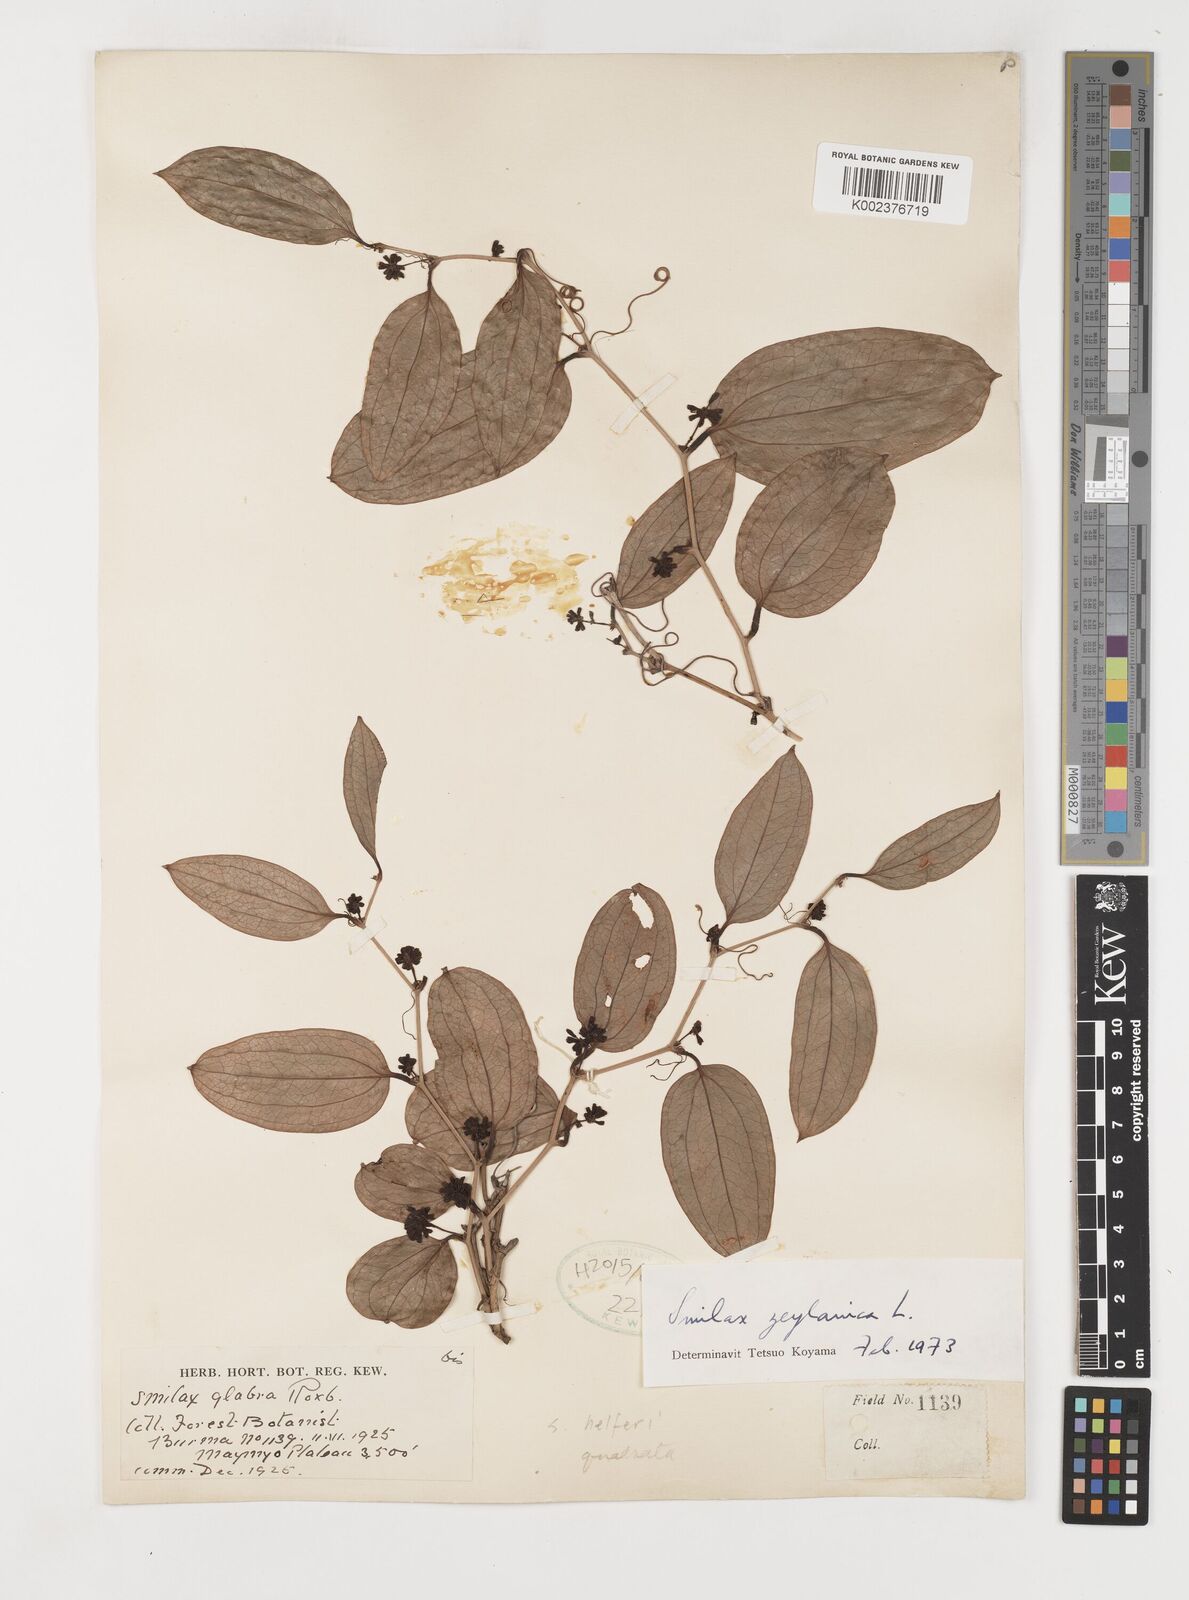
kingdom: Plantae
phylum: Tracheophyta
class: Liliopsida
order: Liliales
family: Smilacaceae
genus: Smilax
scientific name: Smilax zeylanica
